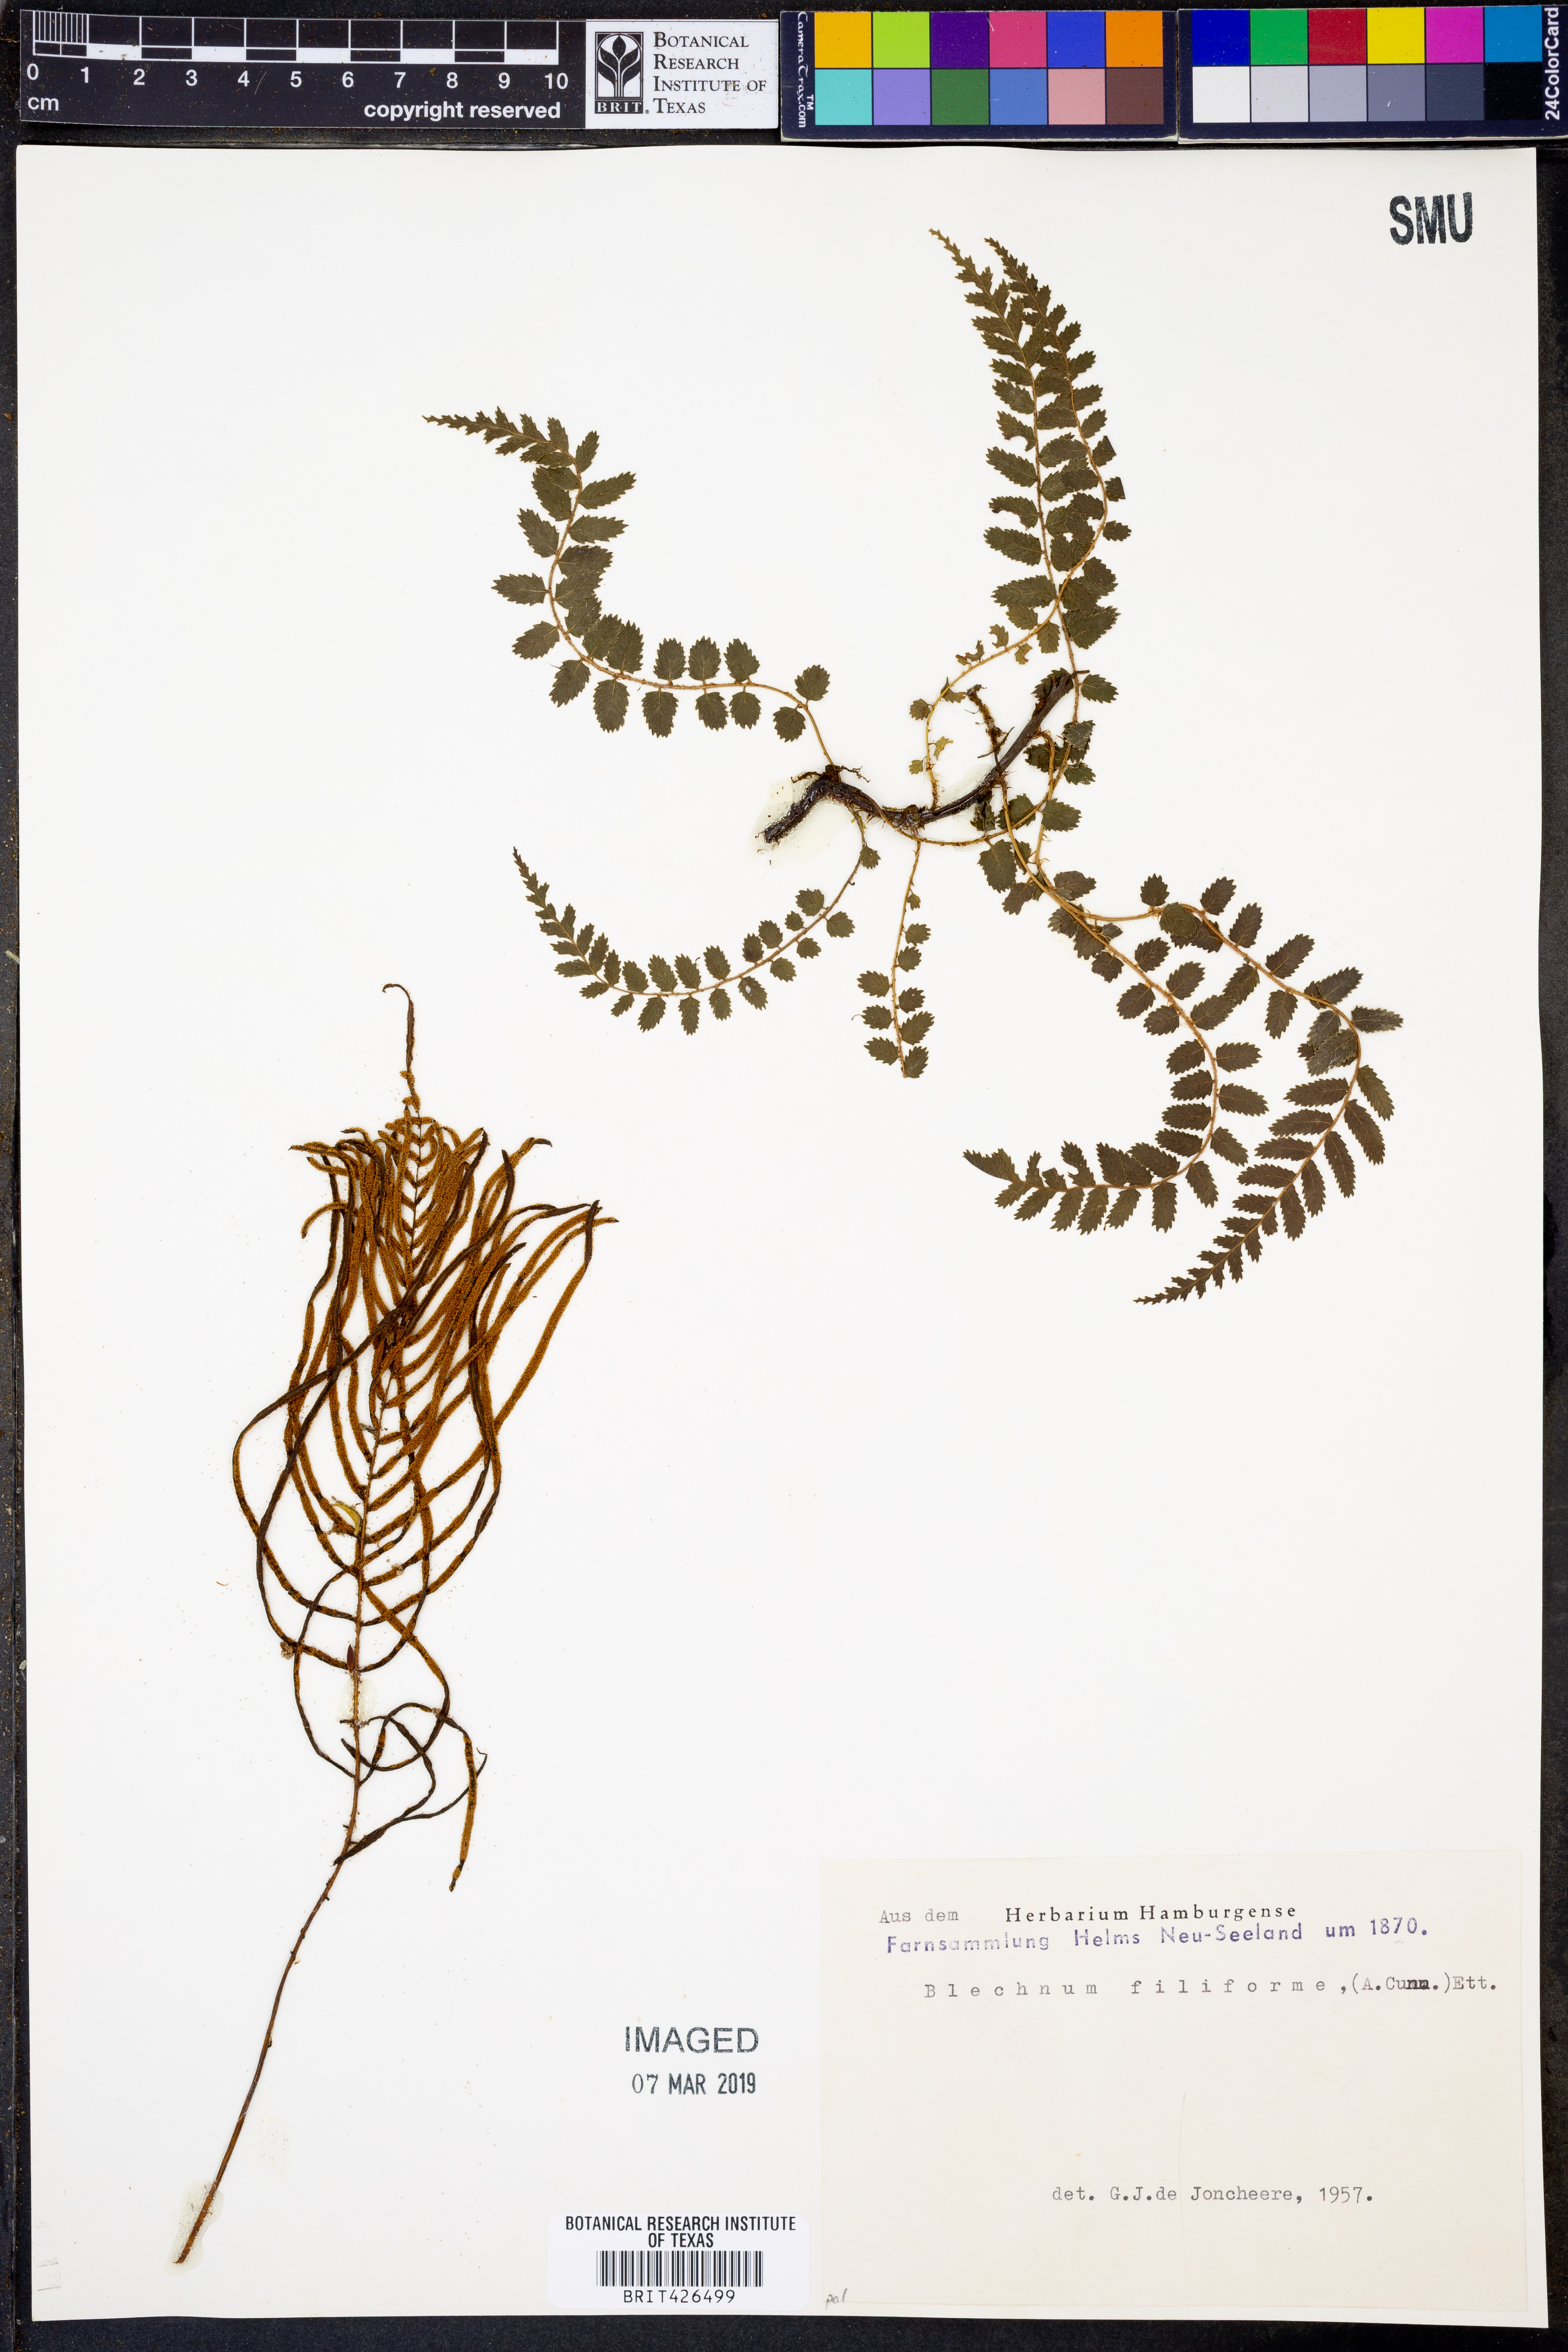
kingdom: Plantae
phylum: Tracheophyta
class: Polypodiopsida
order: Polypodiales
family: Blechnaceae
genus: Icarus
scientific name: Icarus filiformis
